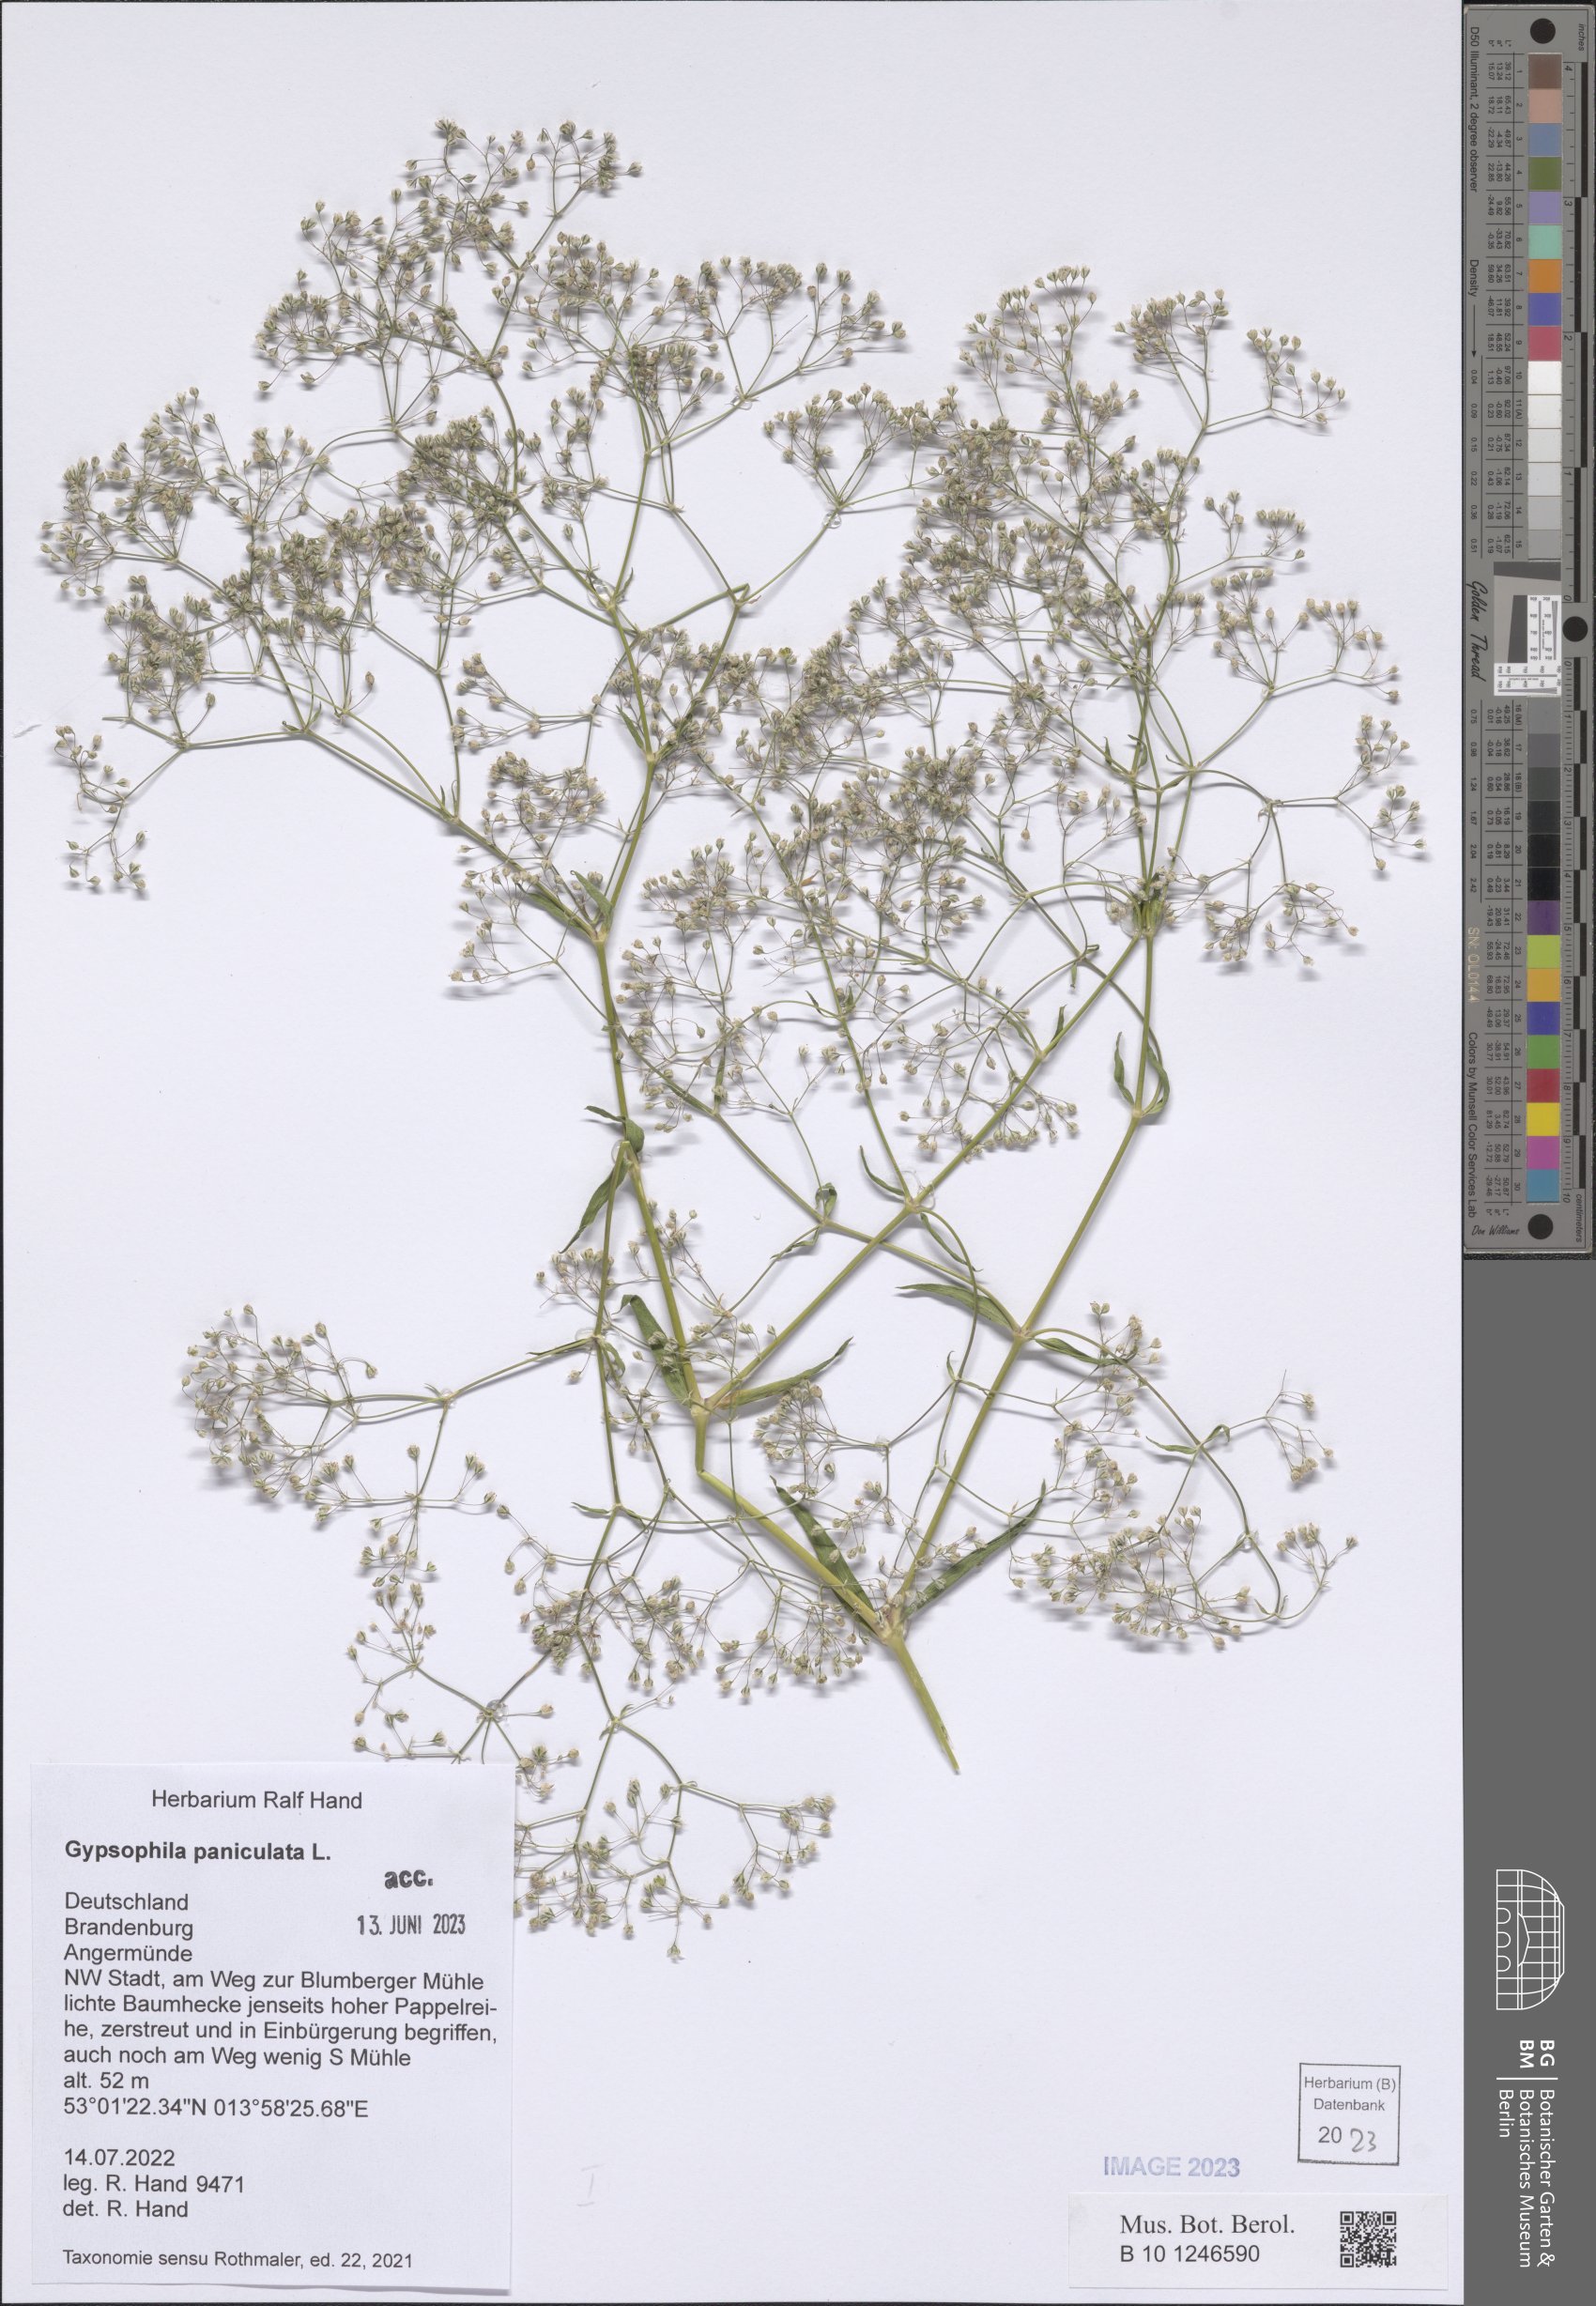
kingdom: Plantae
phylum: Tracheophyta
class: Magnoliopsida
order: Caryophyllales
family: Caryophyllaceae
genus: Gypsophila
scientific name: Gypsophila paniculata
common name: Baby's-breath
